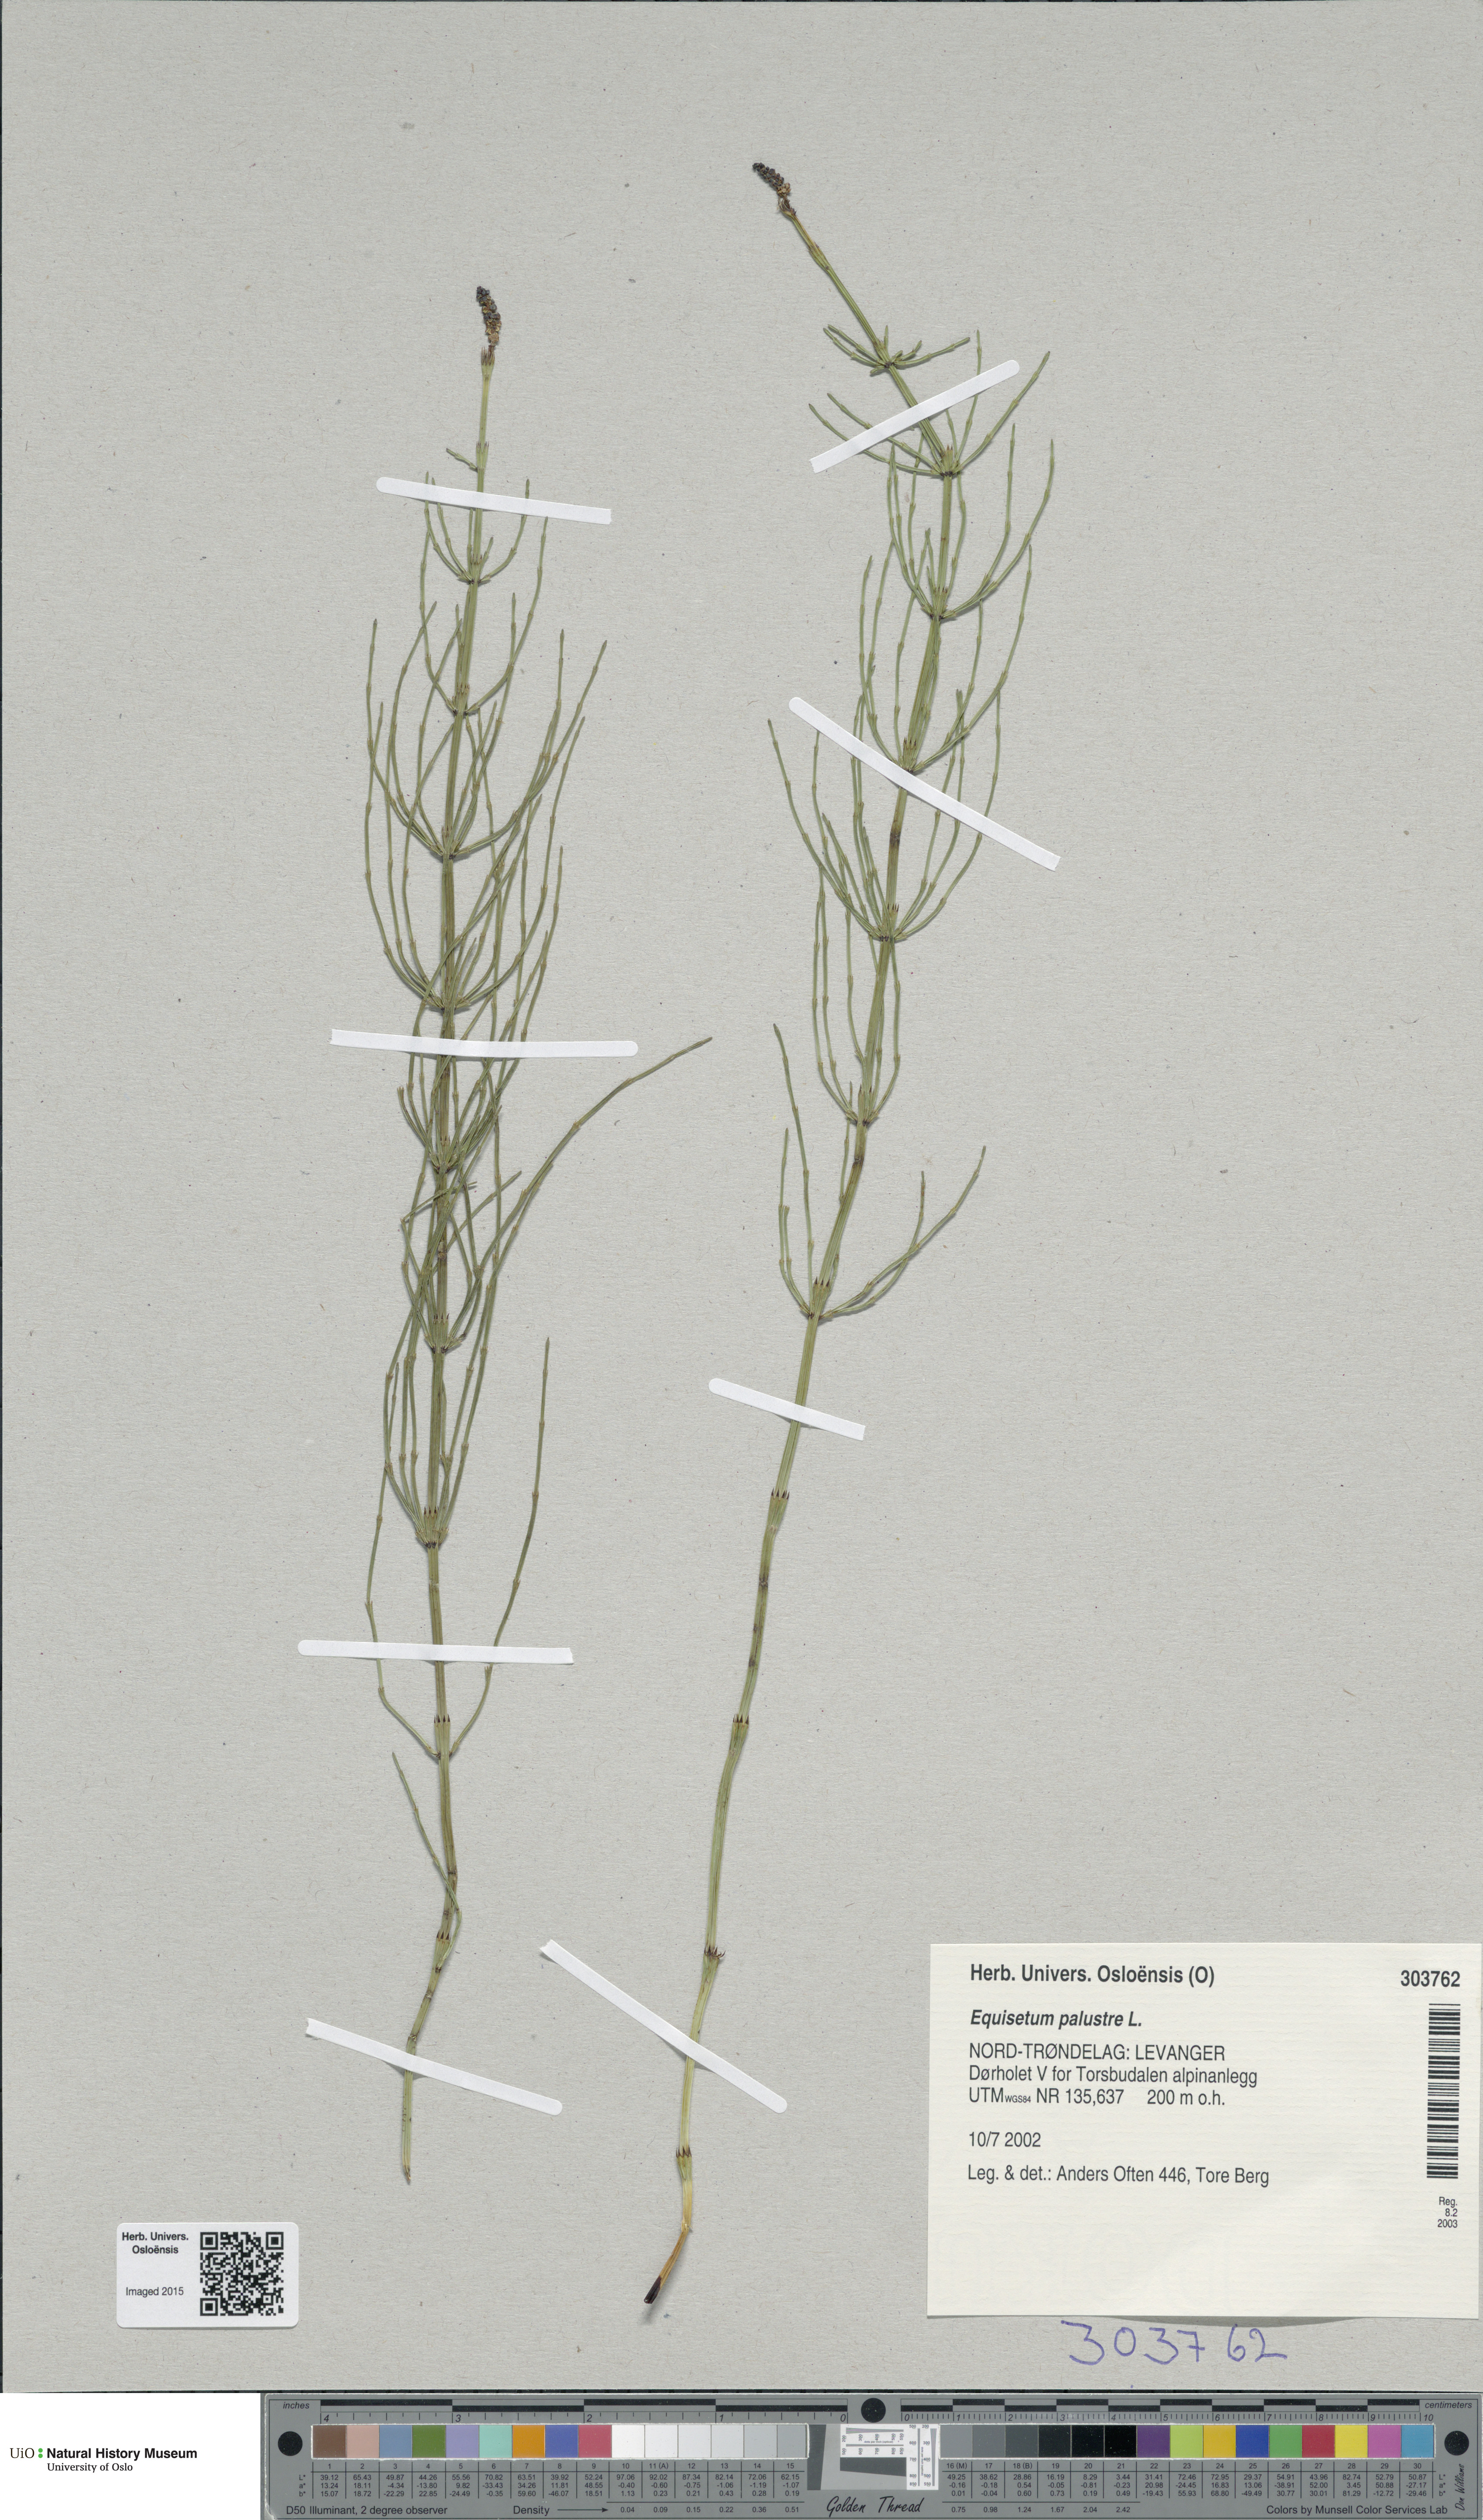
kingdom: Plantae
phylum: Tracheophyta
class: Polypodiopsida
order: Equisetales
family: Equisetaceae
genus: Equisetum
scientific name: Equisetum palustre
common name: Marsh horsetail
